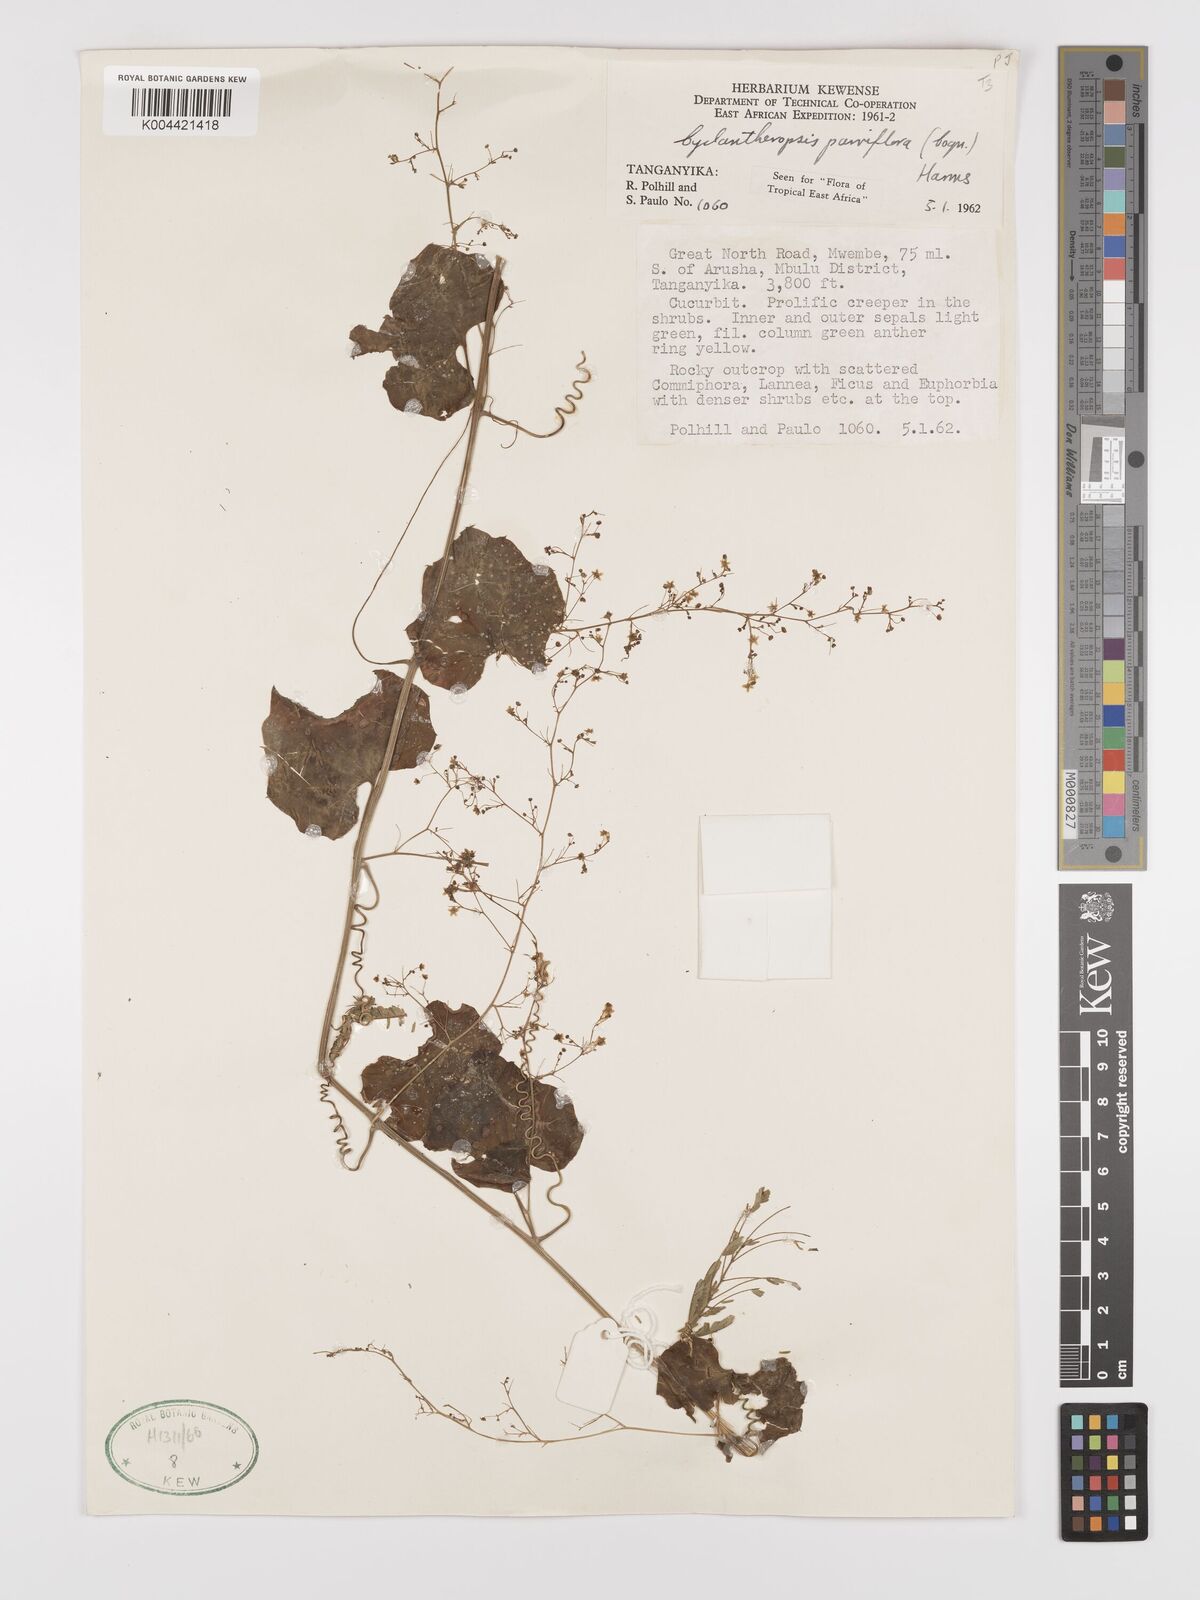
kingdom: Plantae
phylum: Tracheophyta
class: Magnoliopsida
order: Cucurbitales
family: Cucurbitaceae
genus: Cyclantheropsis
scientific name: Cyclantheropsis parviflora
